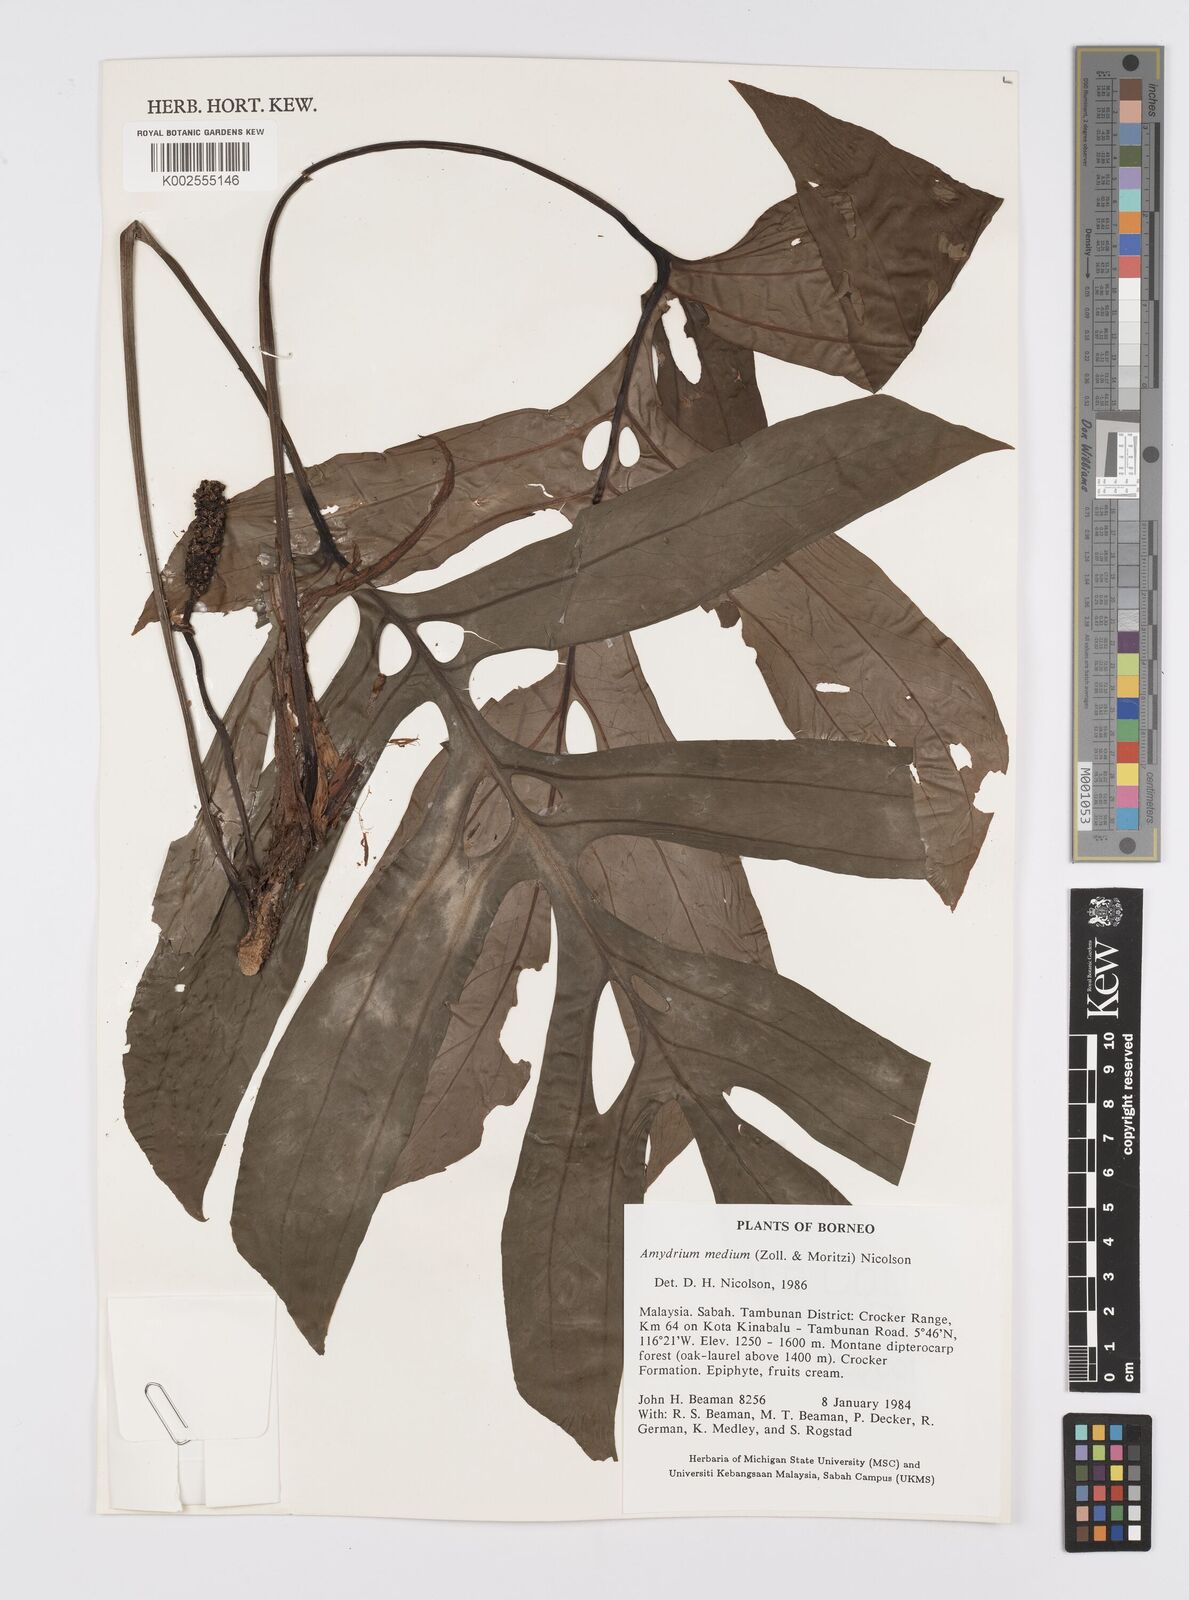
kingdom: Plantae
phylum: Tracheophyta
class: Liliopsida
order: Alismatales
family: Araceae
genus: Amydrium
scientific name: Amydrium medium
